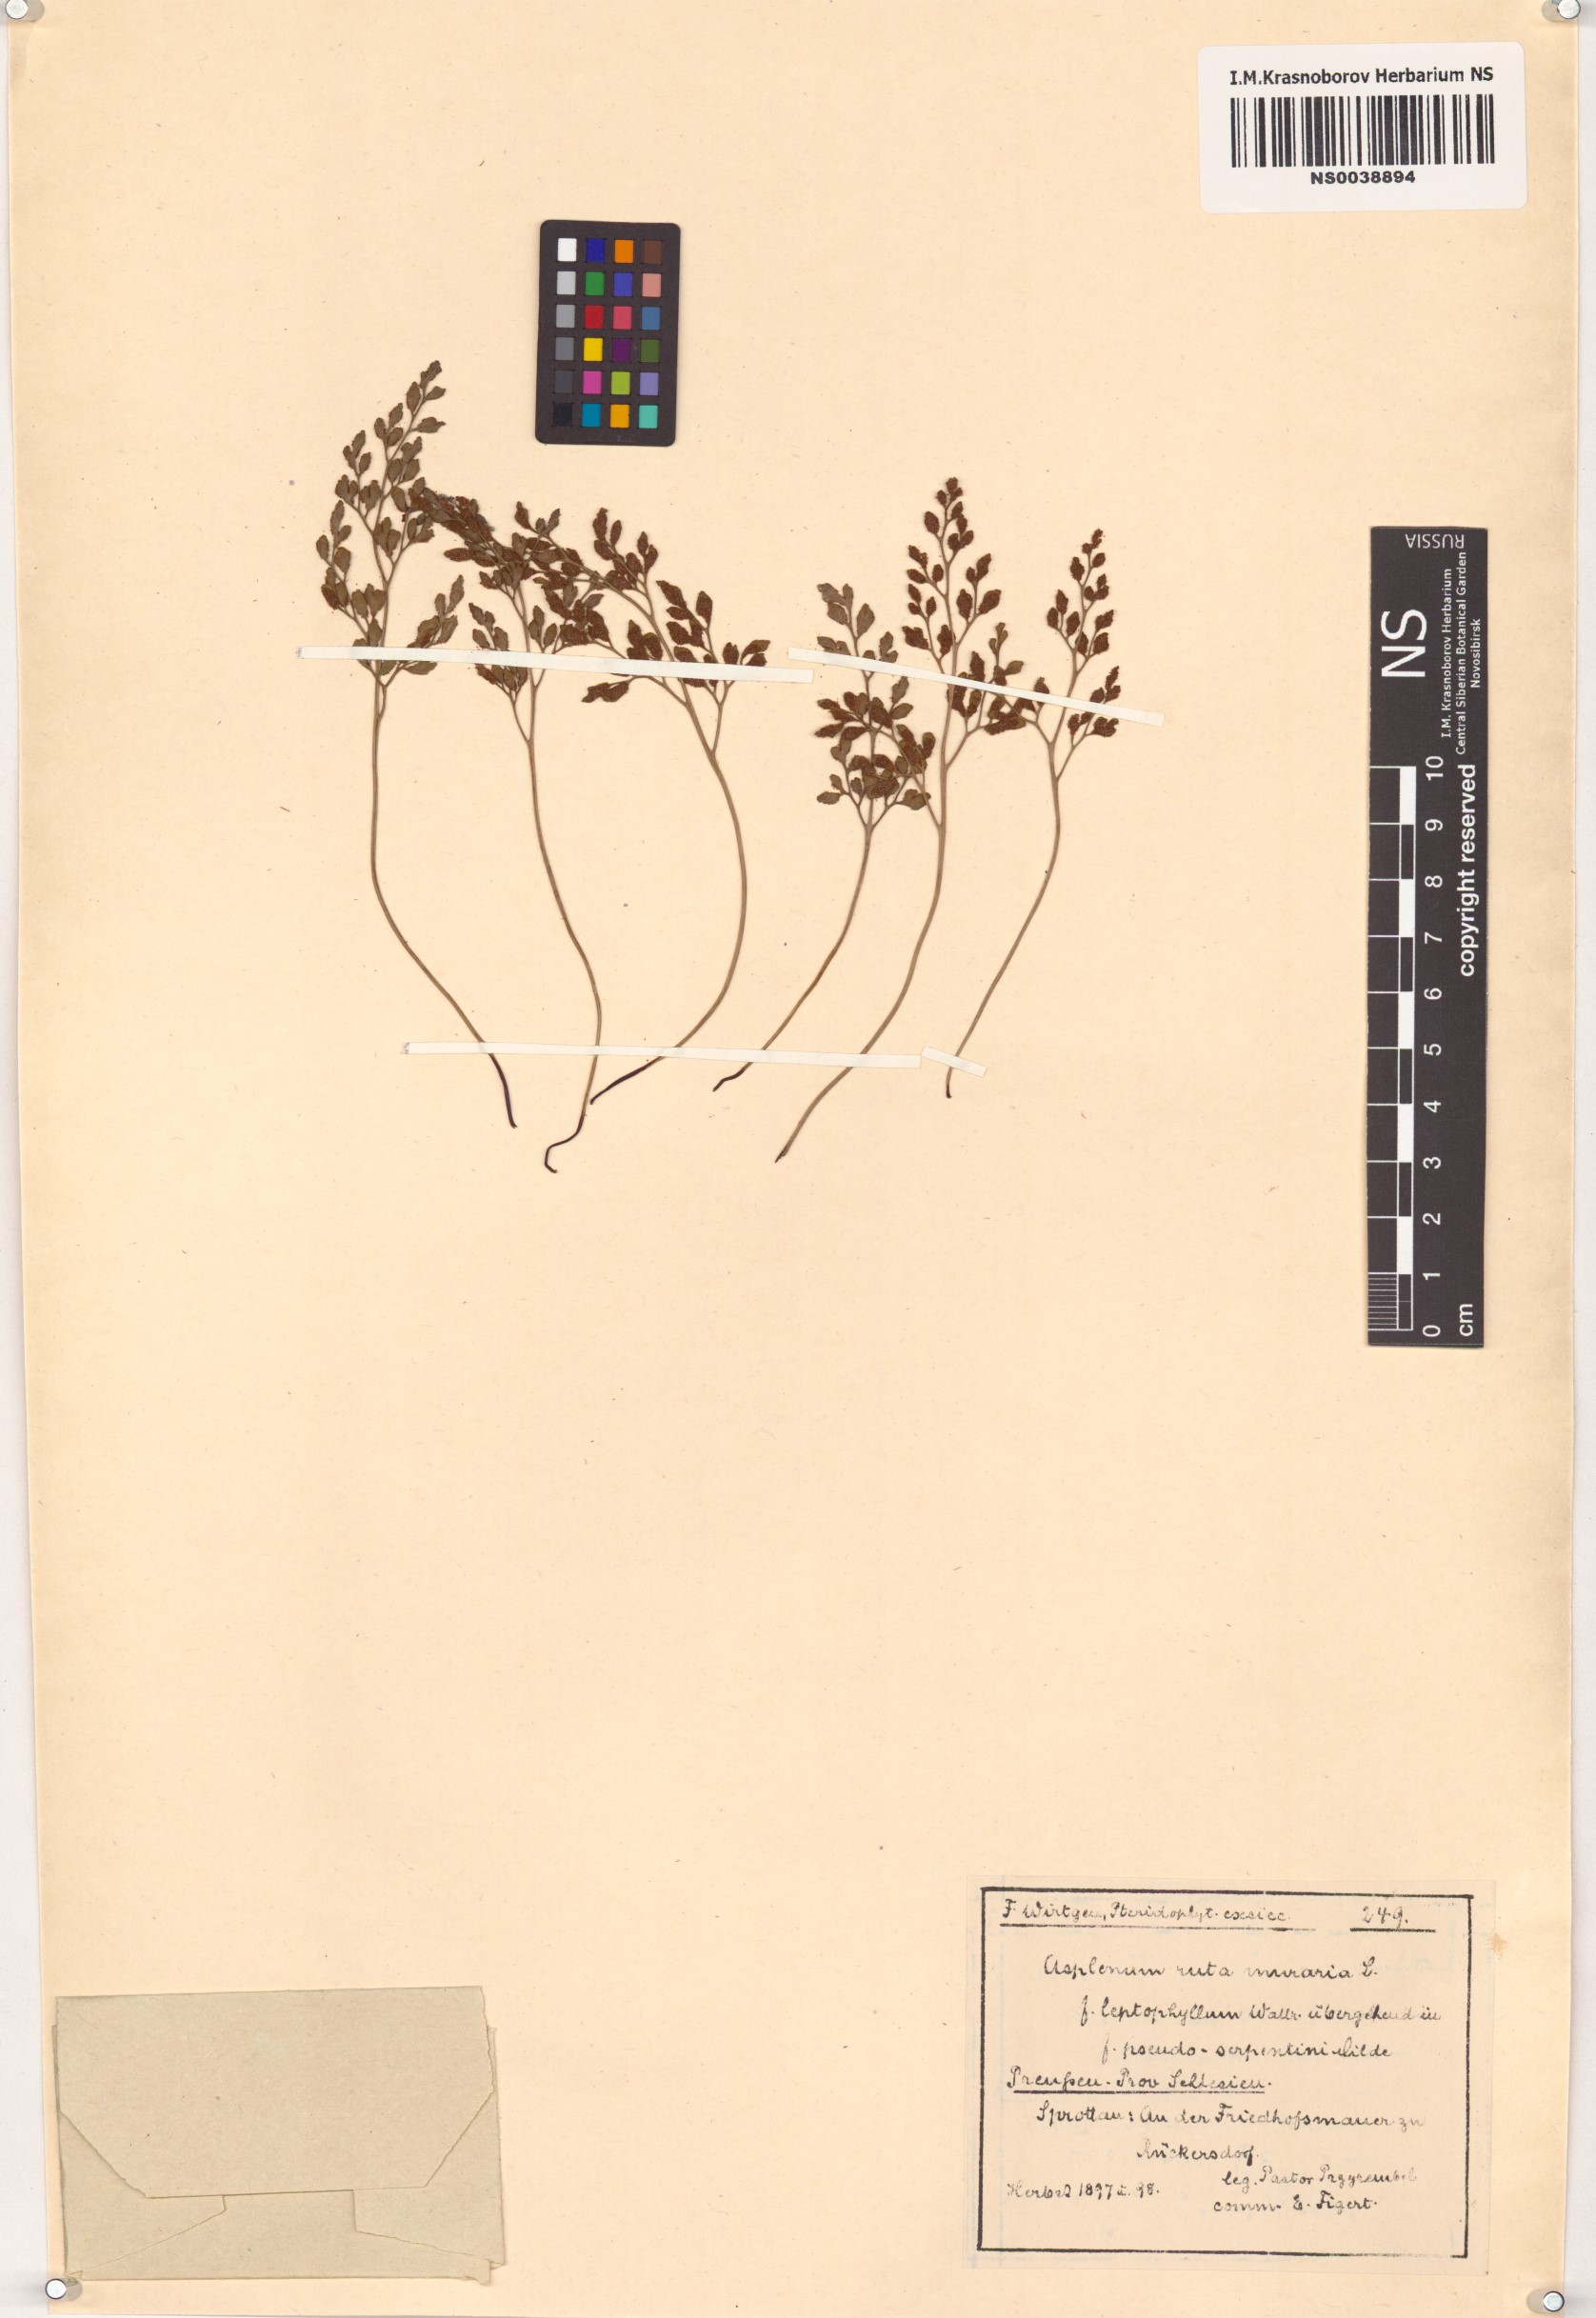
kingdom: Plantae
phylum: Tracheophyta
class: Polypodiopsida
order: Polypodiales
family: Aspleniaceae
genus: Asplenium
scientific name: Asplenium ruta-muraria
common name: Wall-rue
